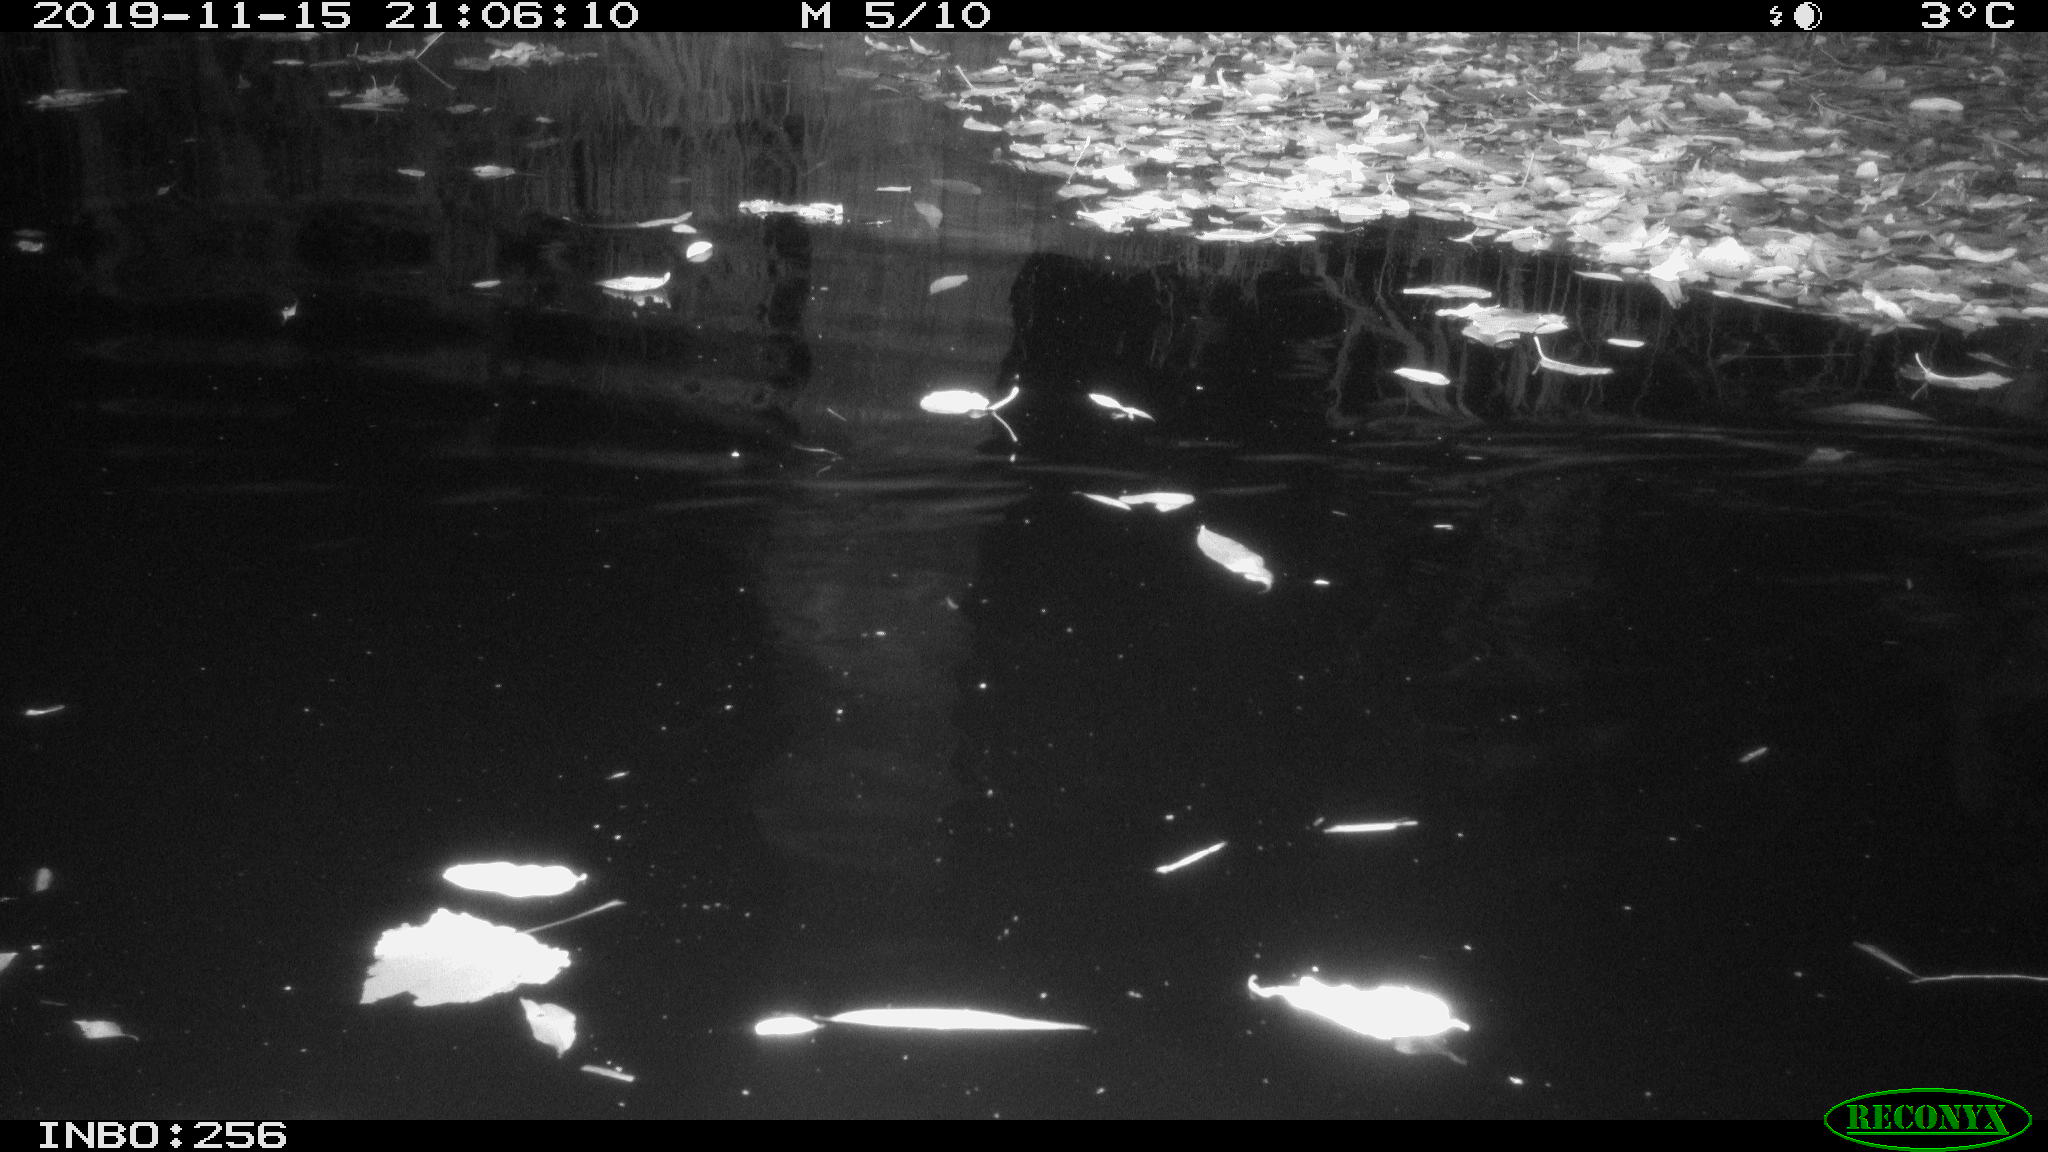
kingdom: Animalia
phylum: Chordata
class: Mammalia
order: Rodentia
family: Muridae
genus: Rattus
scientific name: Rattus norvegicus
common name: Brown rat
